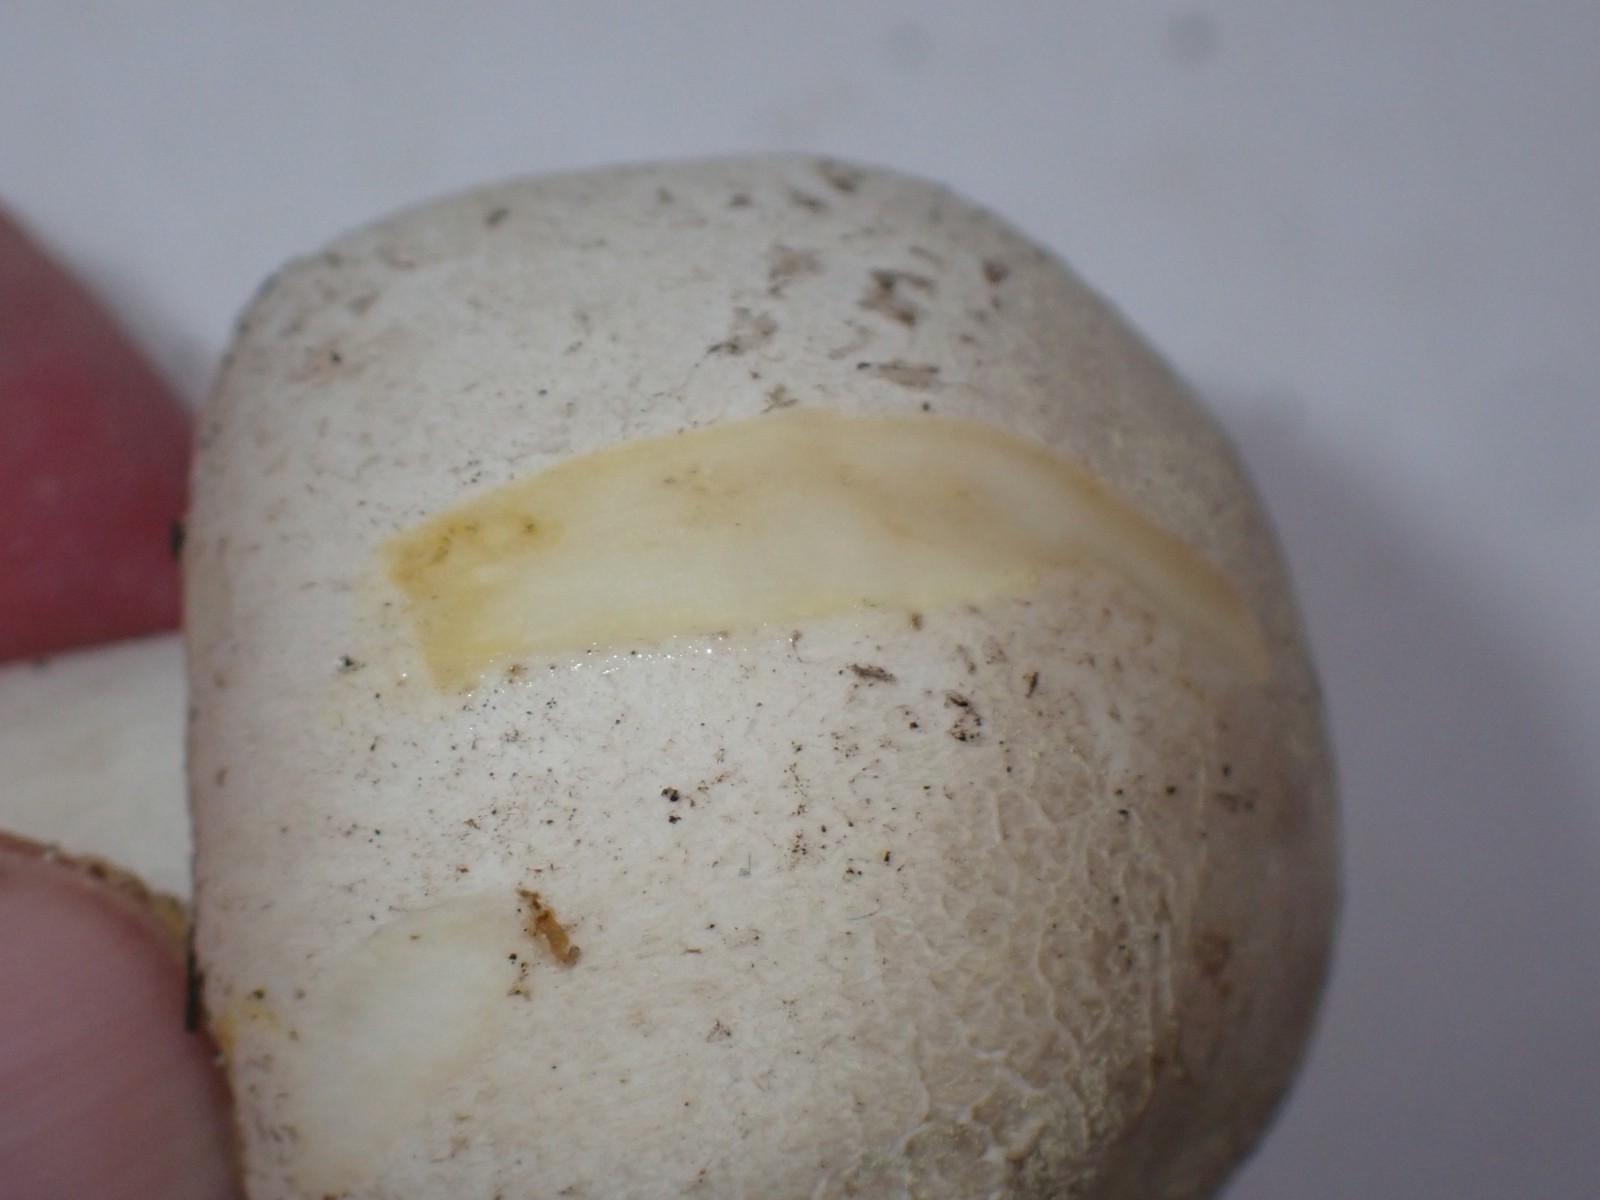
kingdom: Fungi
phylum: Basidiomycota
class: Agaricomycetes
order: Agaricales
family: Agaricaceae
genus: Agaricus
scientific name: Agaricus xanthodermus
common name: karbol-champignon
